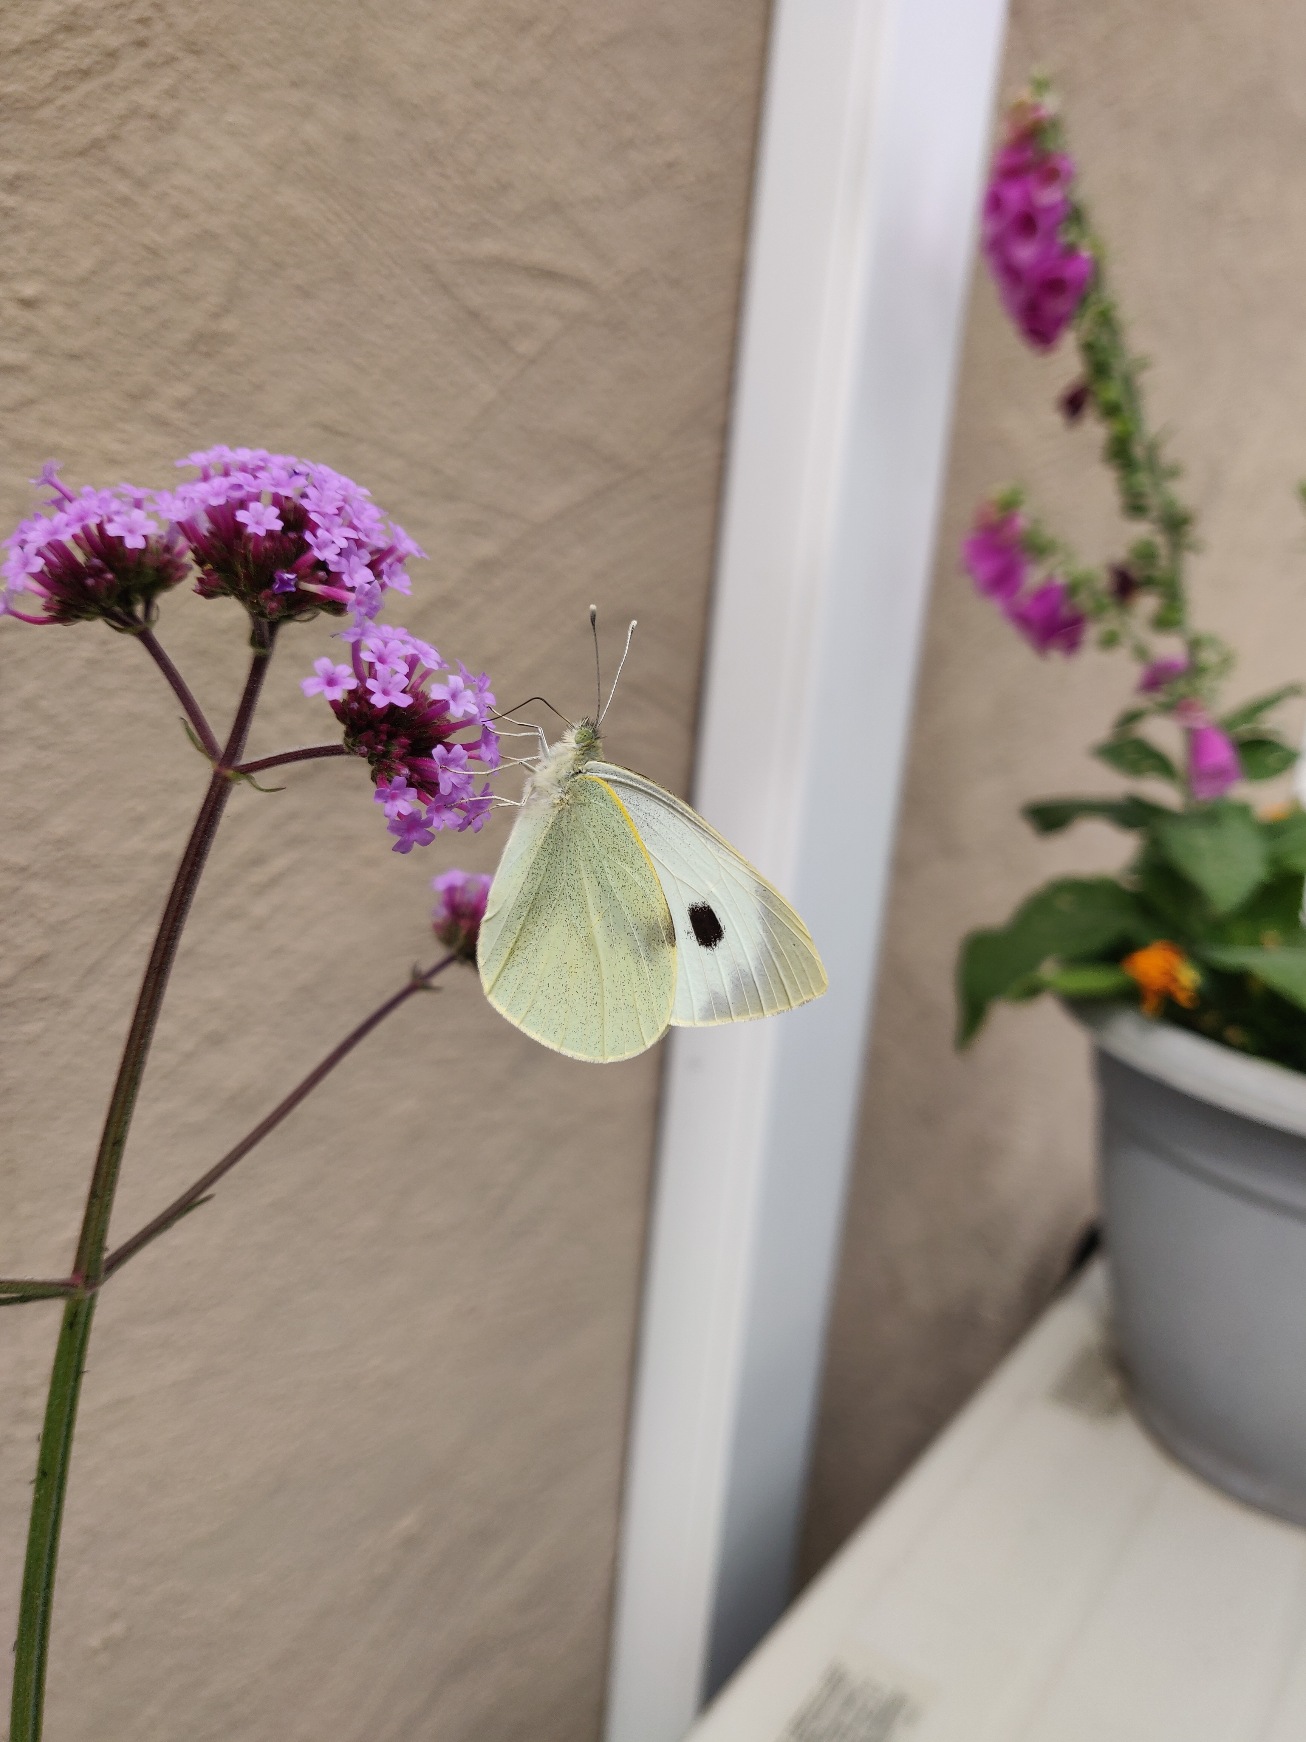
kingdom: Animalia
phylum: Arthropoda
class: Insecta
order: Lepidoptera
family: Pieridae
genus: Pieris
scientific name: Pieris brassicae
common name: Stor kålsommerfugl
